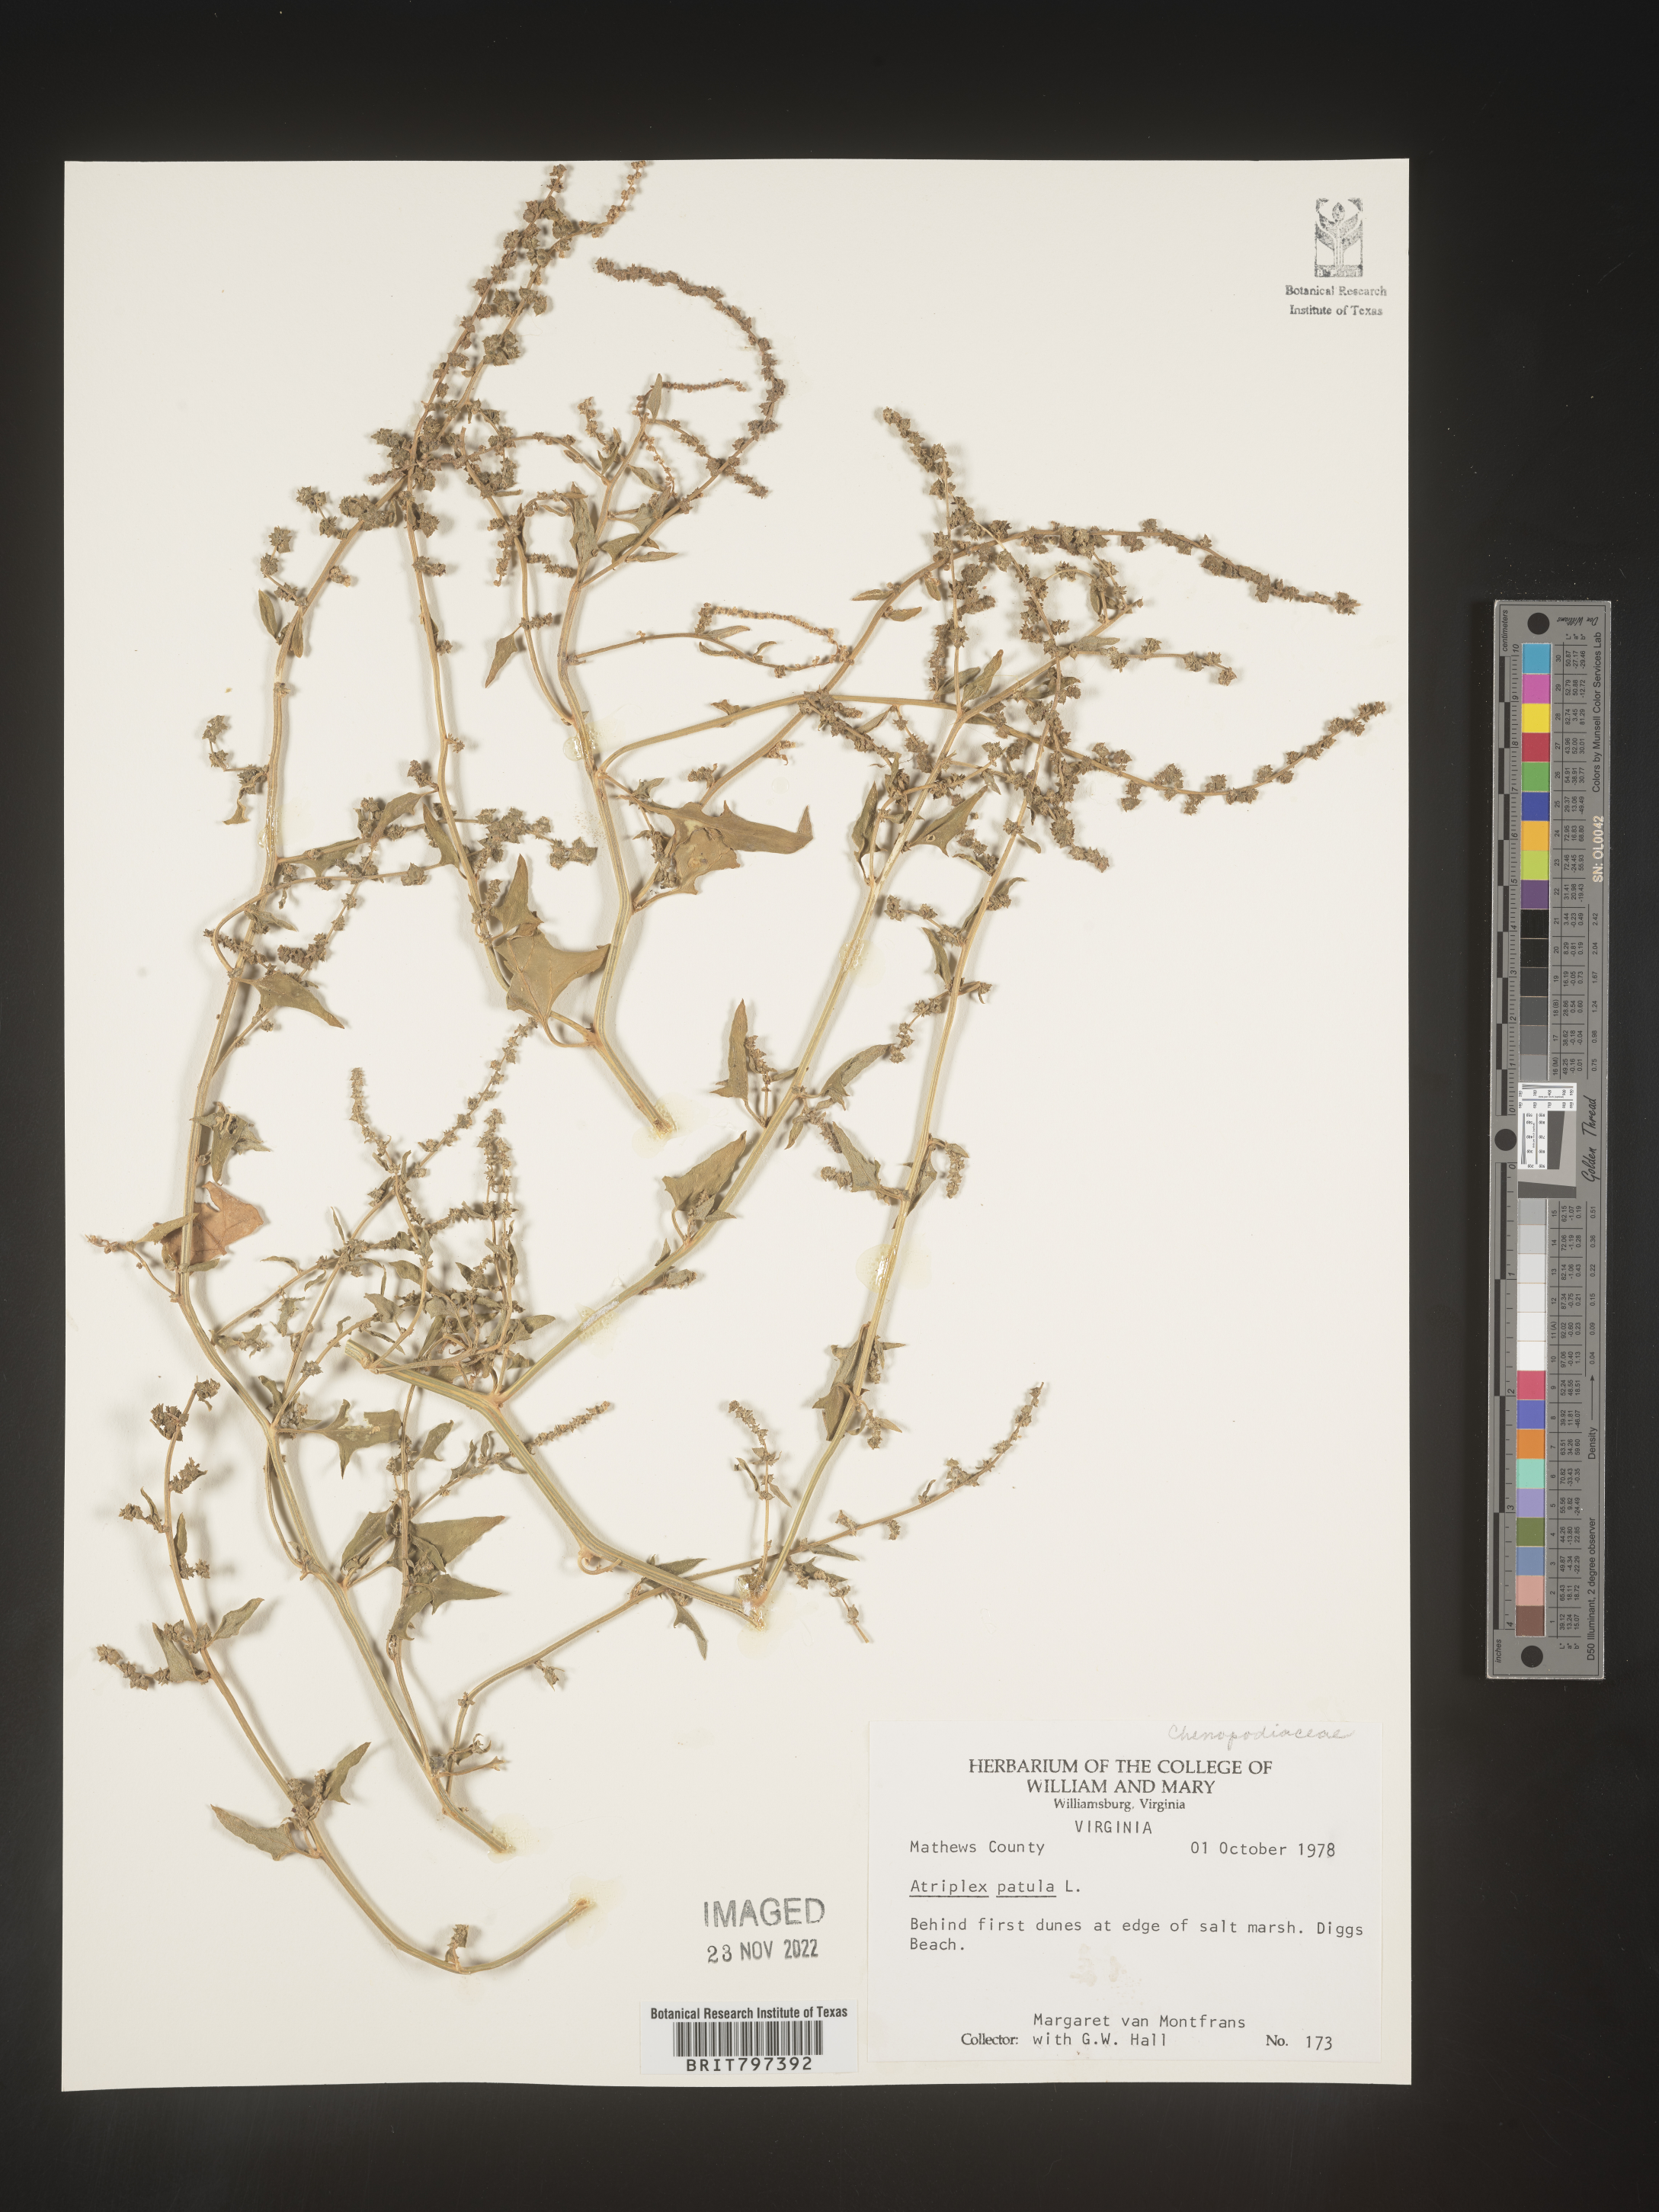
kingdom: Plantae
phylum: Tracheophyta
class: Magnoliopsida
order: Caryophyllales
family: Amaranthaceae
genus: Atriplex
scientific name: Atriplex prostrata
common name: Spear-leaved orache
